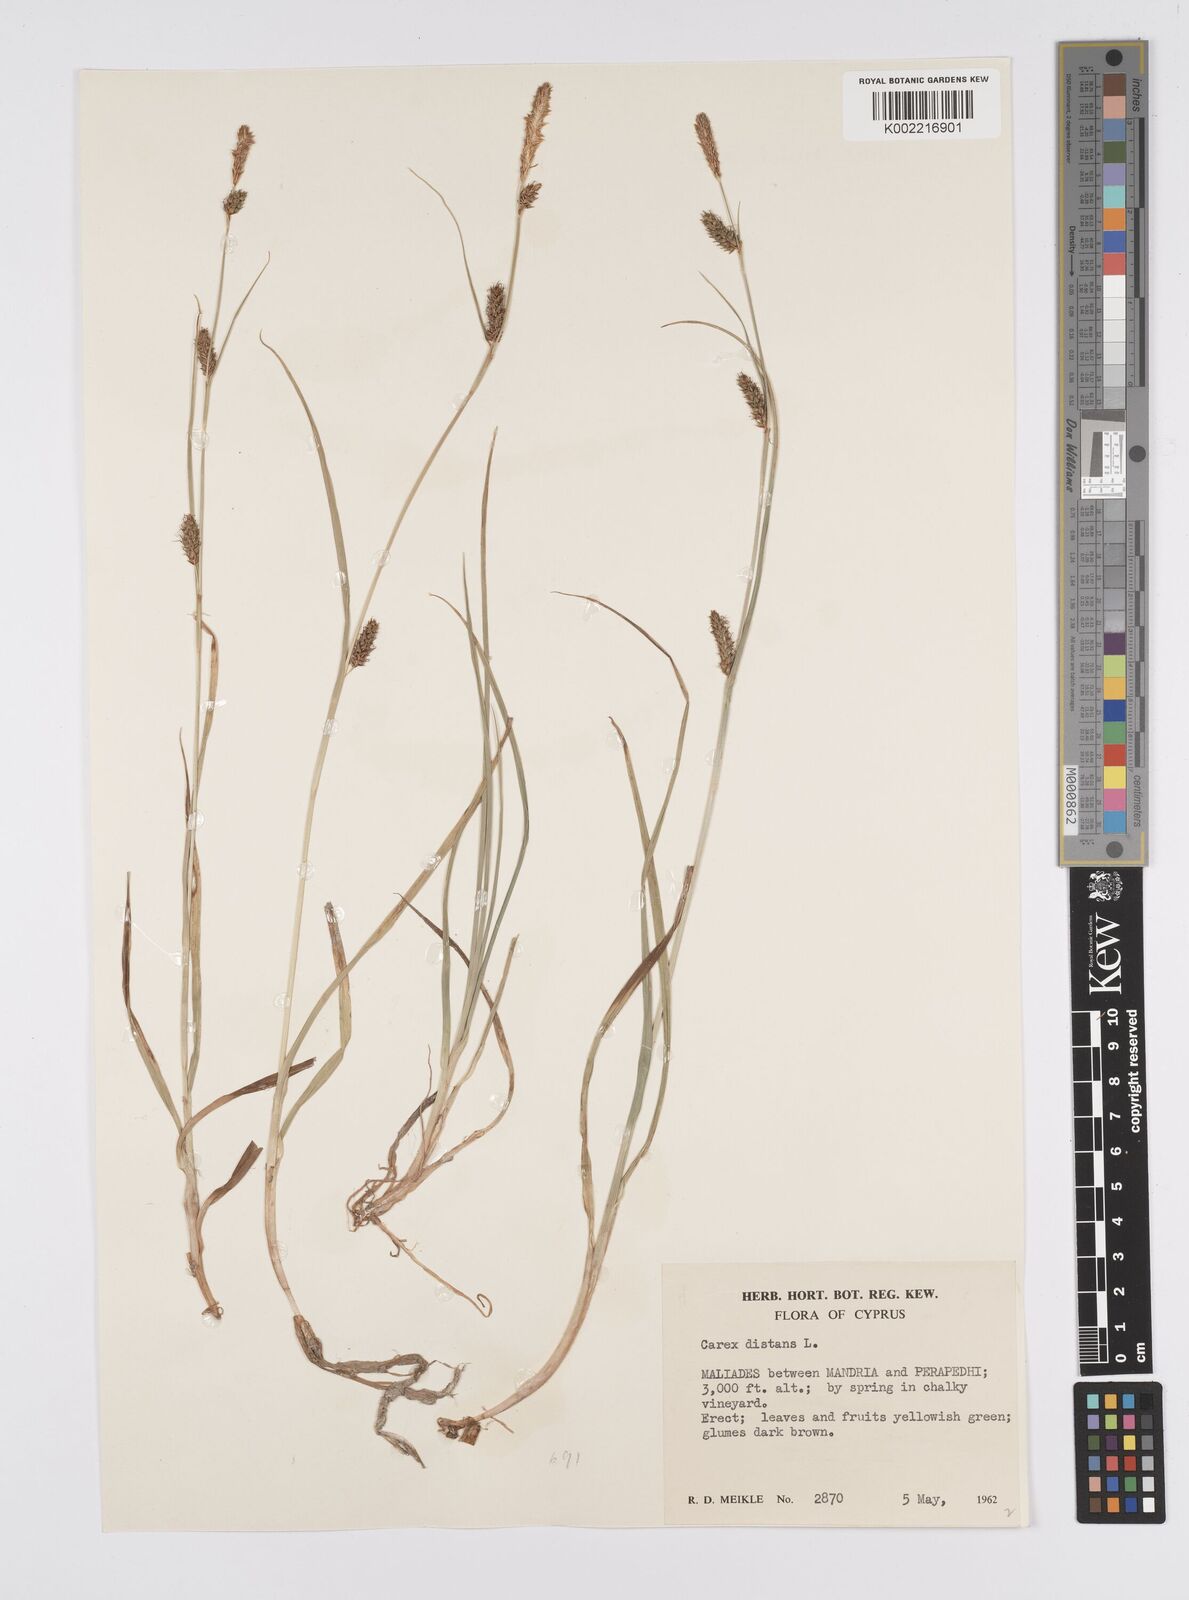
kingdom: Plantae
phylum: Tracheophyta
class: Liliopsida
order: Poales
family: Cyperaceae
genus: Carex
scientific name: Carex distans
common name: Distant sedge
